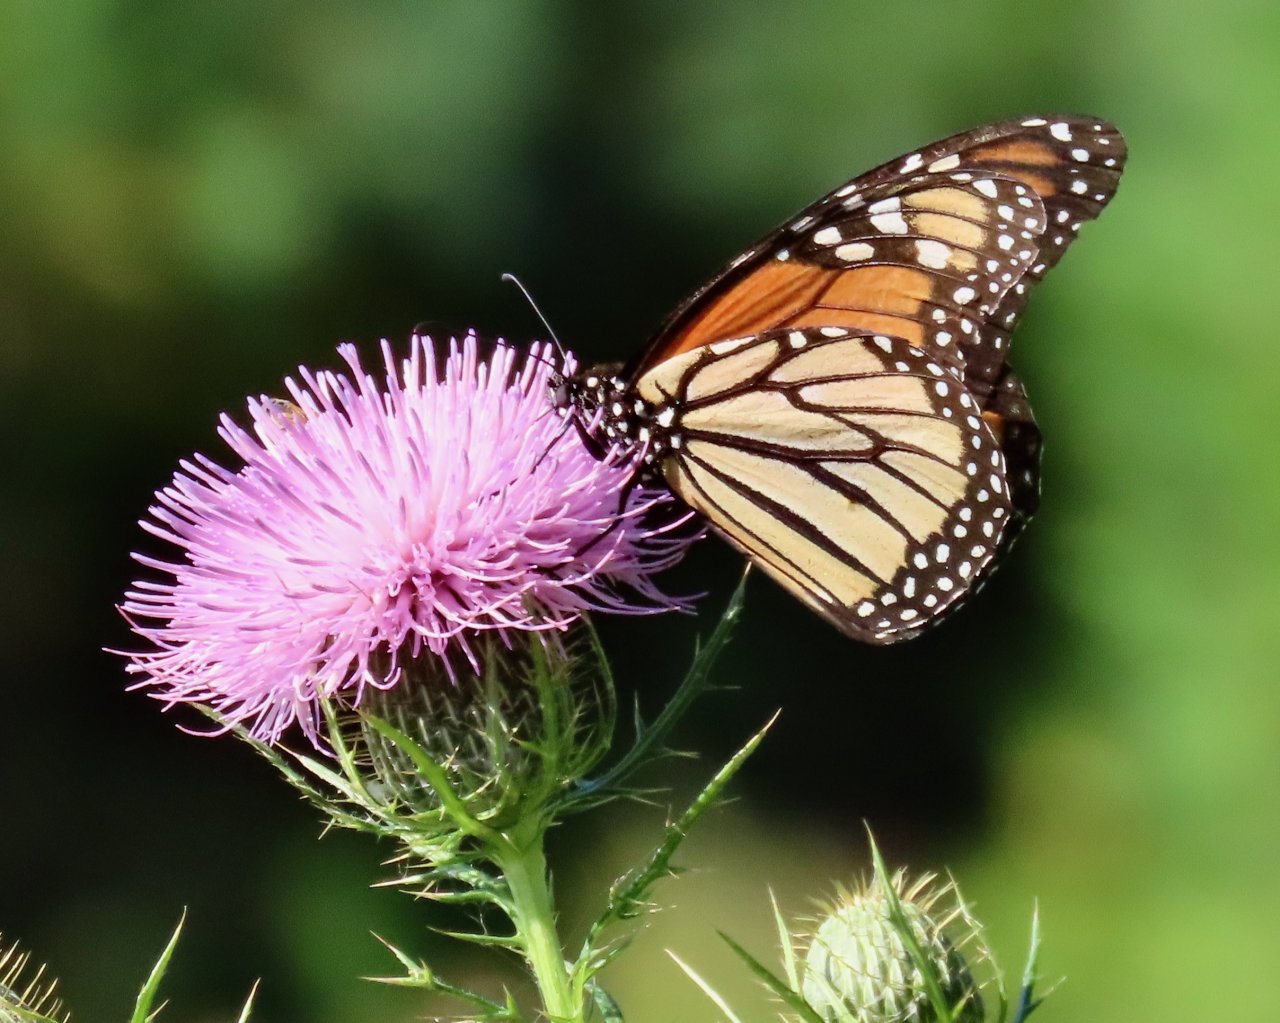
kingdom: Animalia
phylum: Arthropoda
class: Insecta
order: Lepidoptera
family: Nymphalidae
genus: Danaus
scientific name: Danaus plexippus
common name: Monarch
